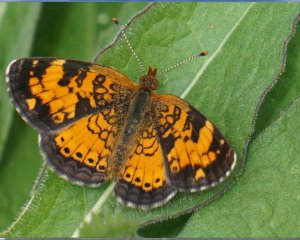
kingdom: Animalia
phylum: Arthropoda
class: Insecta
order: Lepidoptera
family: Nymphalidae
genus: Phyciodes
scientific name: Phyciodes tharos
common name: Northern Crescent
